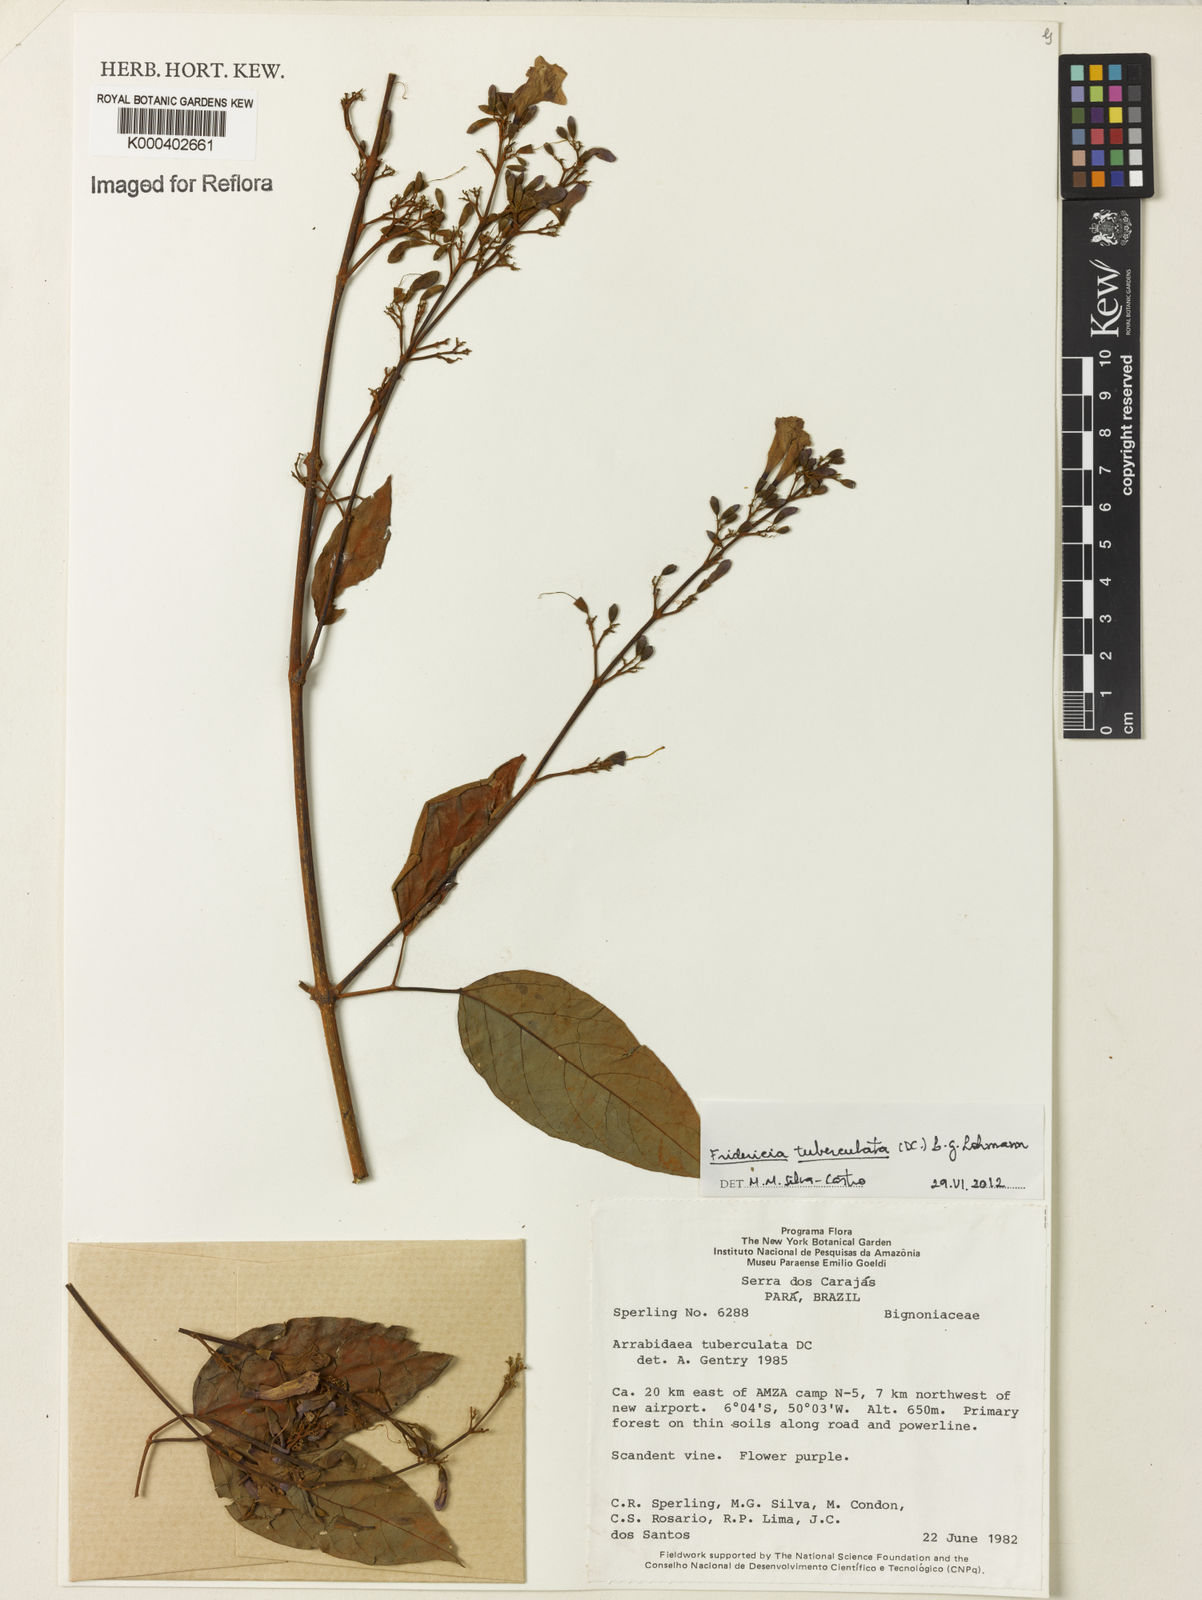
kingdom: Plantae
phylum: Tracheophyta
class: Magnoliopsida
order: Lamiales
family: Bignoniaceae
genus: Fridericia
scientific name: Fridericia tuberculata
